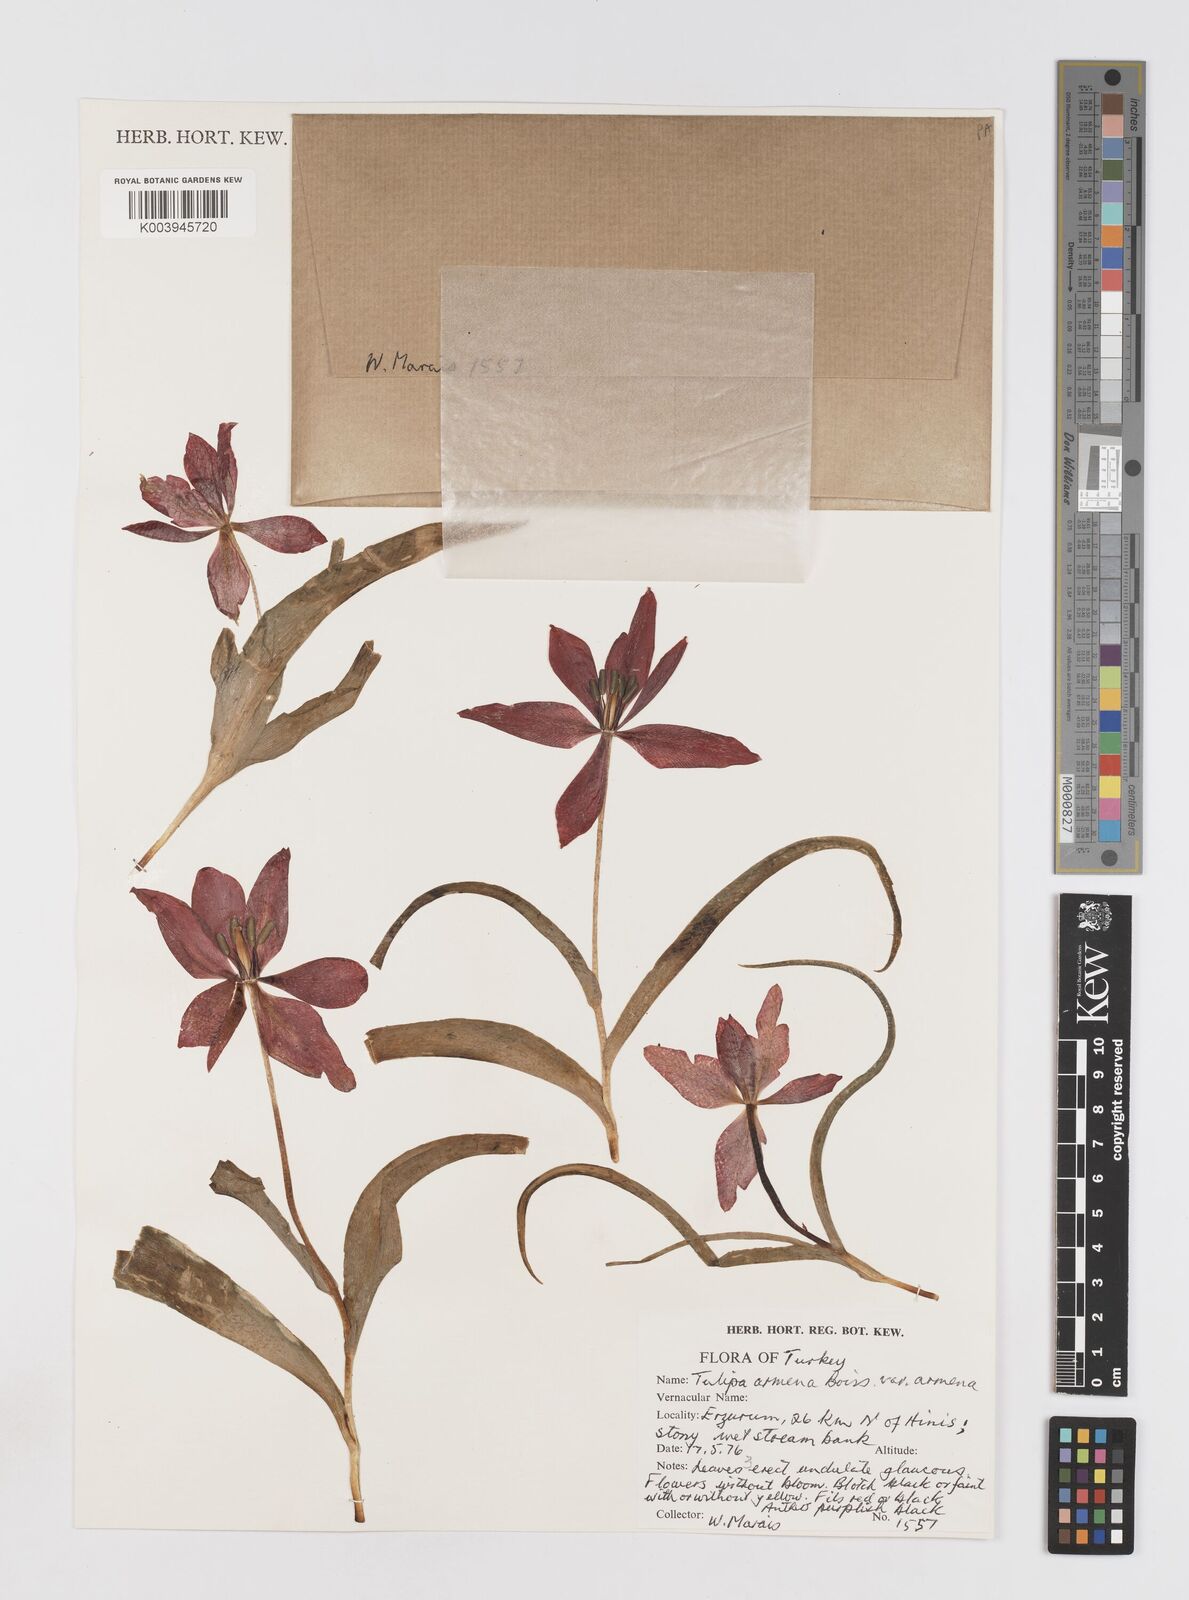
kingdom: Plantae
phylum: Tracheophyta
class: Liliopsida
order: Liliales
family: Liliaceae
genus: Tulipa
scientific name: Tulipa armena
